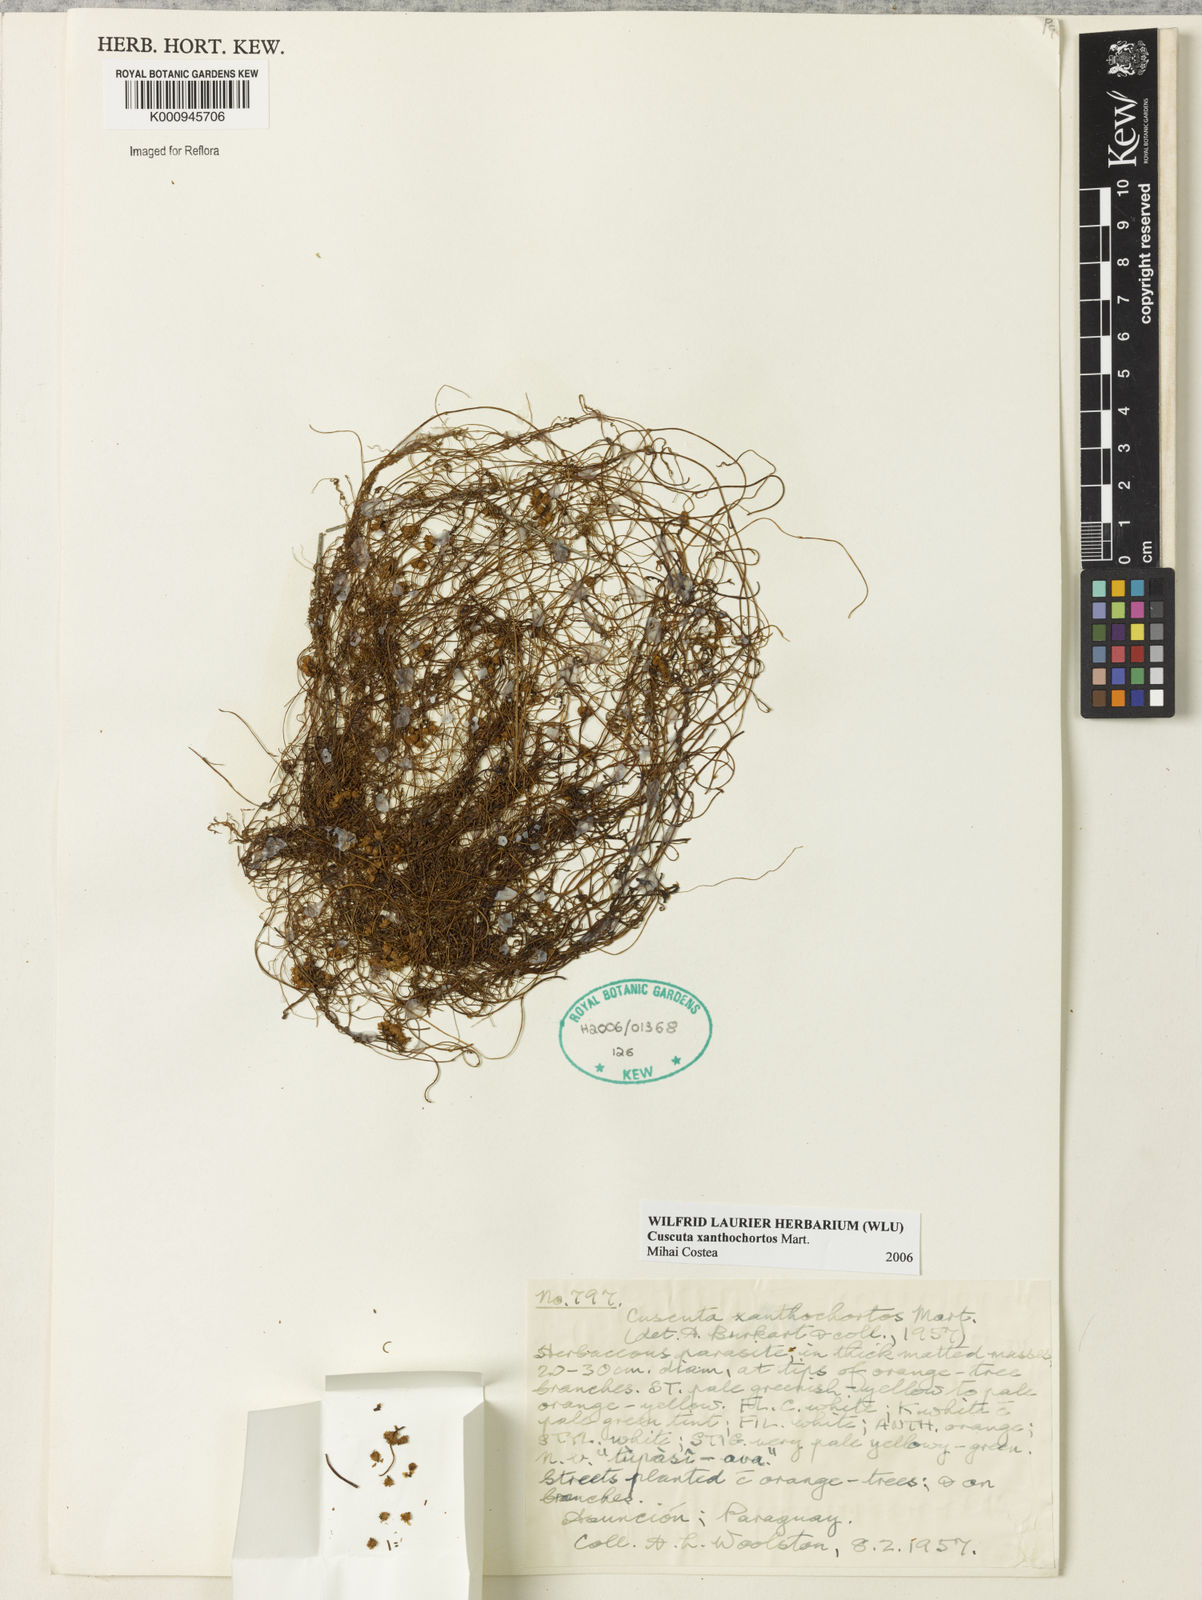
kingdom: Plantae
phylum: Tracheophyta
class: Magnoliopsida
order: Solanales
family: Convolvulaceae
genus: Cuscuta
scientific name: Cuscuta
